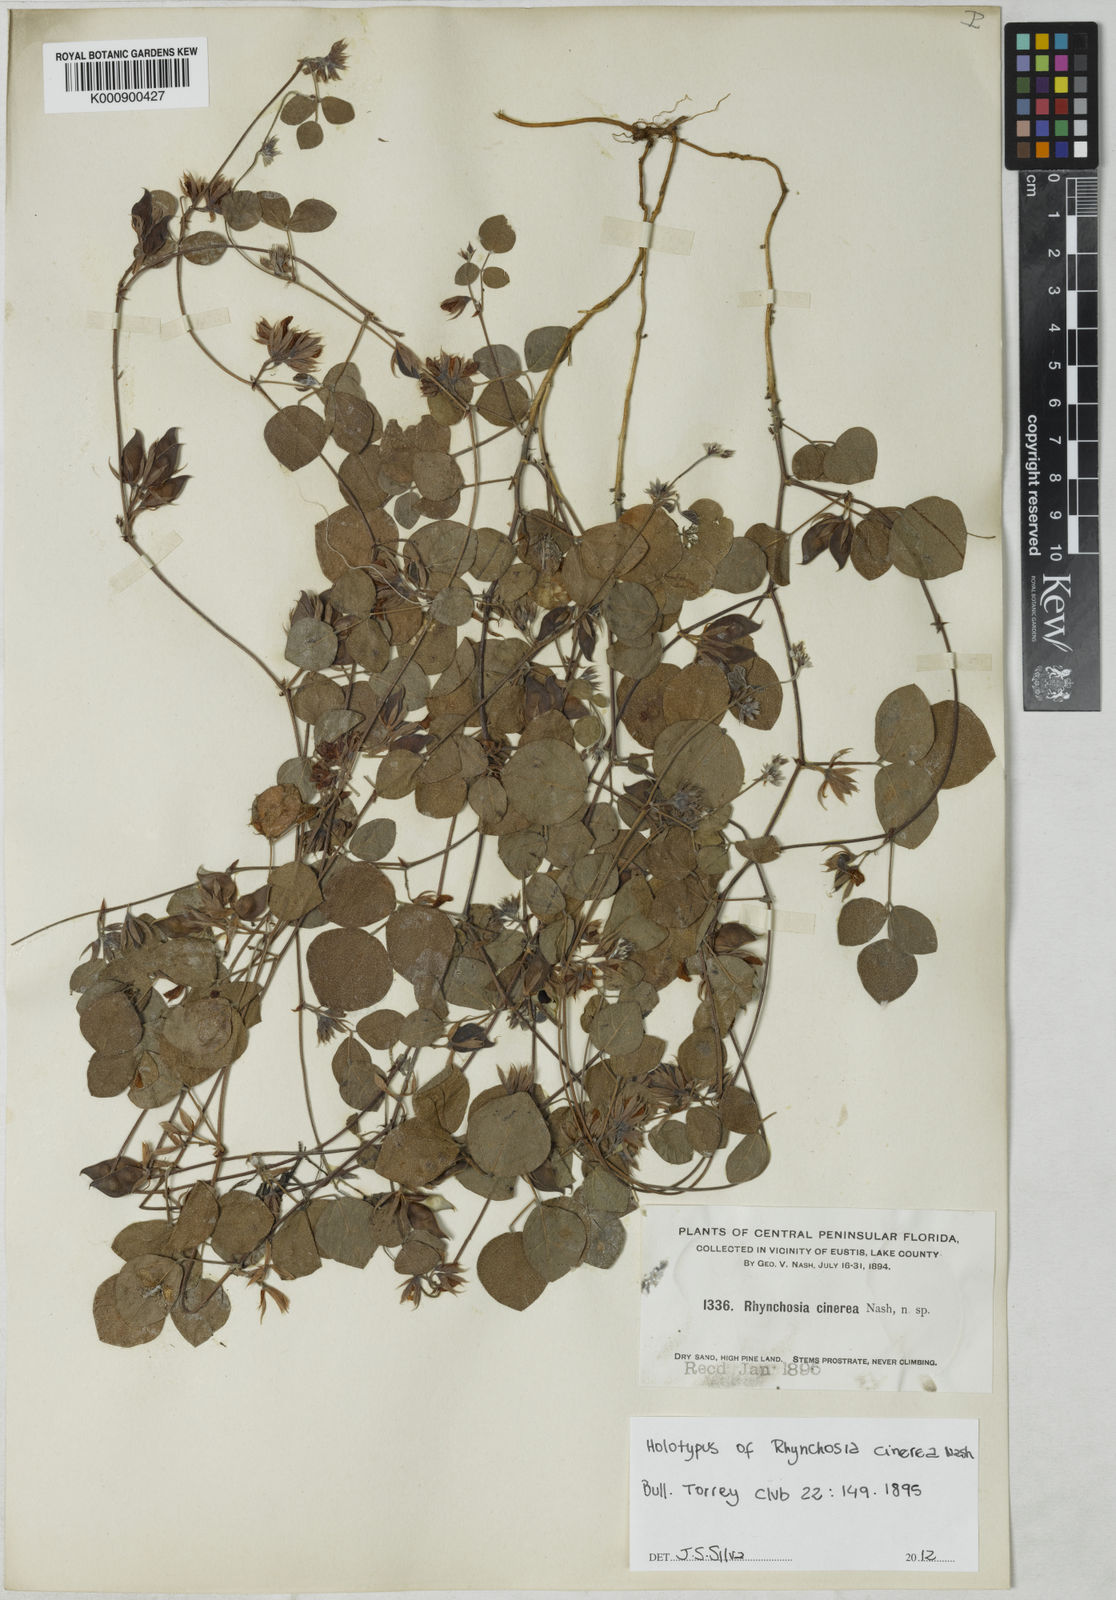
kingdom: Plantae
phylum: Tracheophyta
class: Magnoliopsida
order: Fabales
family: Fabaceae
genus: Rhynchosia
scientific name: Rhynchosia cinerea
